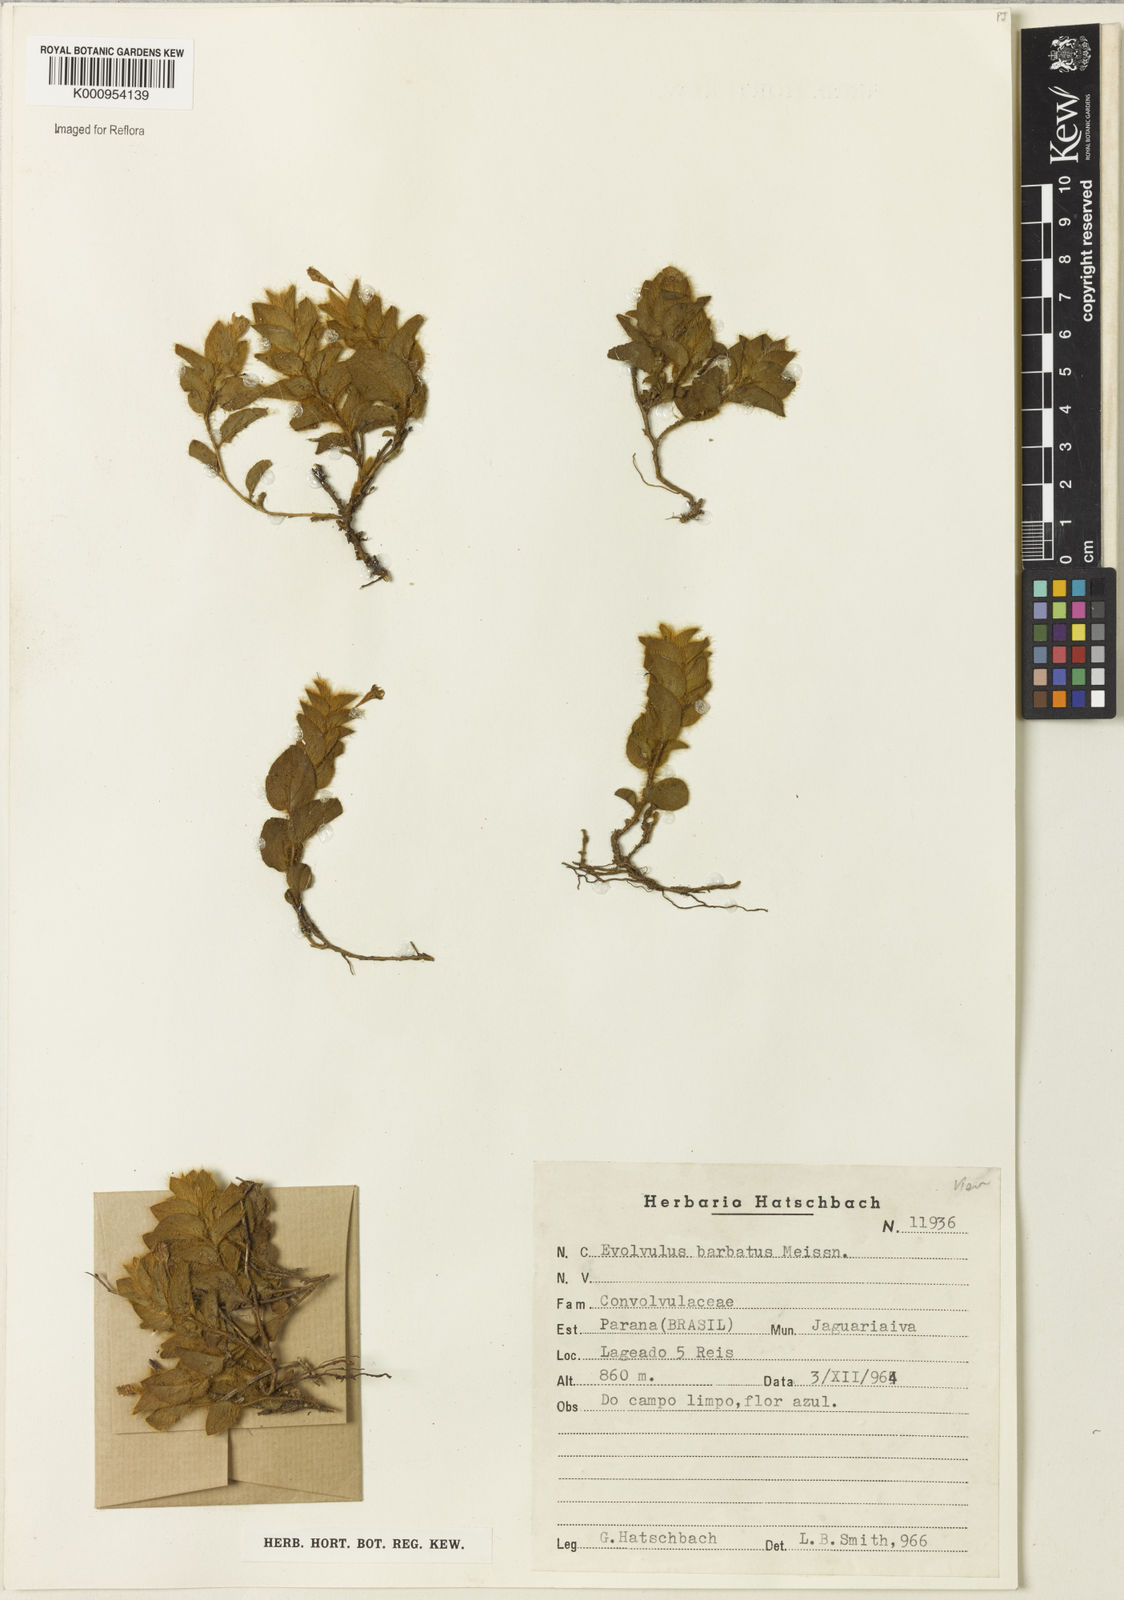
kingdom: Plantae
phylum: Tracheophyta
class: Magnoliopsida
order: Solanales
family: Convolvulaceae
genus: Evolvulus
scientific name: Evolvulus barbatus
